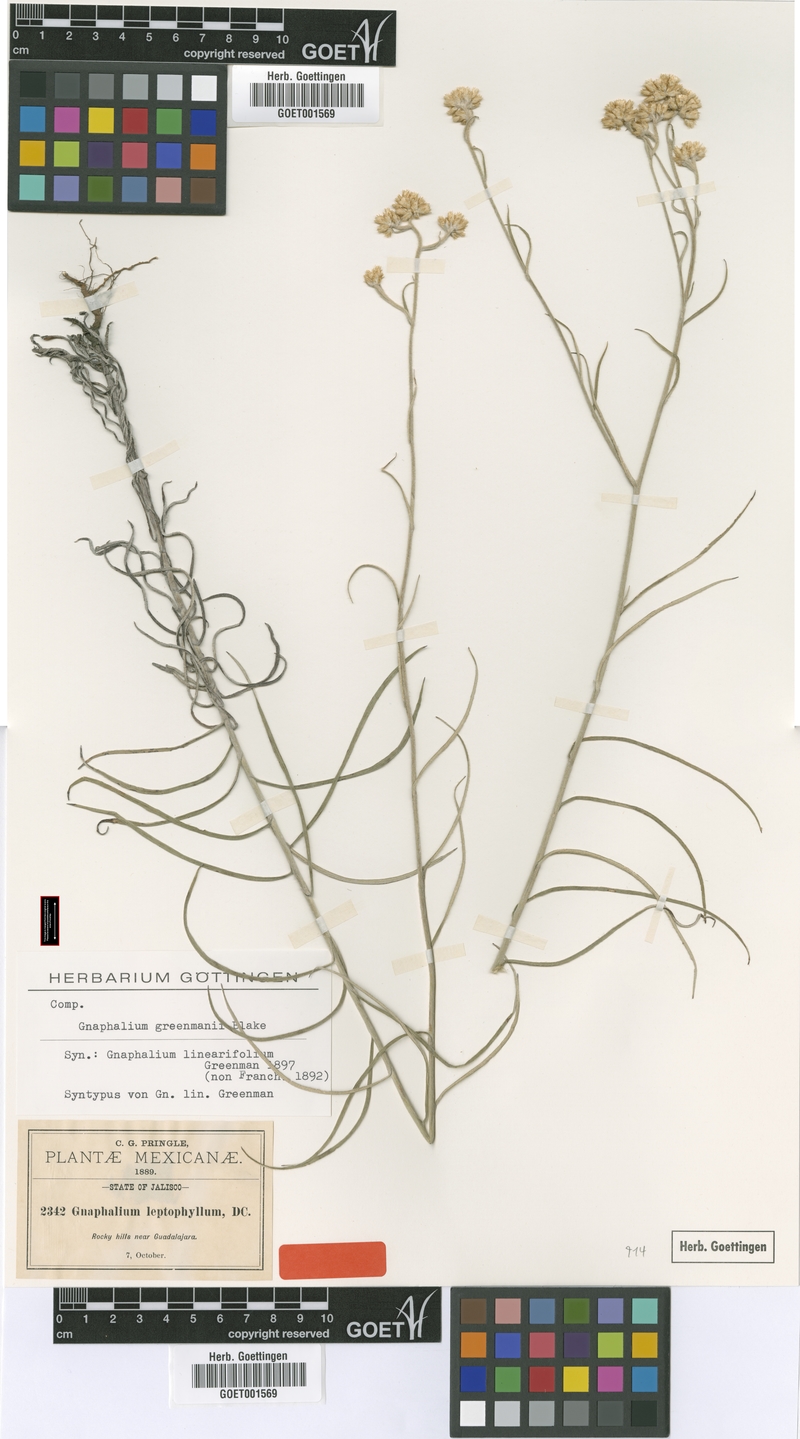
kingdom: Plantae
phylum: Tracheophyta
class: Magnoliopsida
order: Asterales
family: Asteraceae
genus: Pseudognaphalium
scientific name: Pseudognaphalium greenmanii
